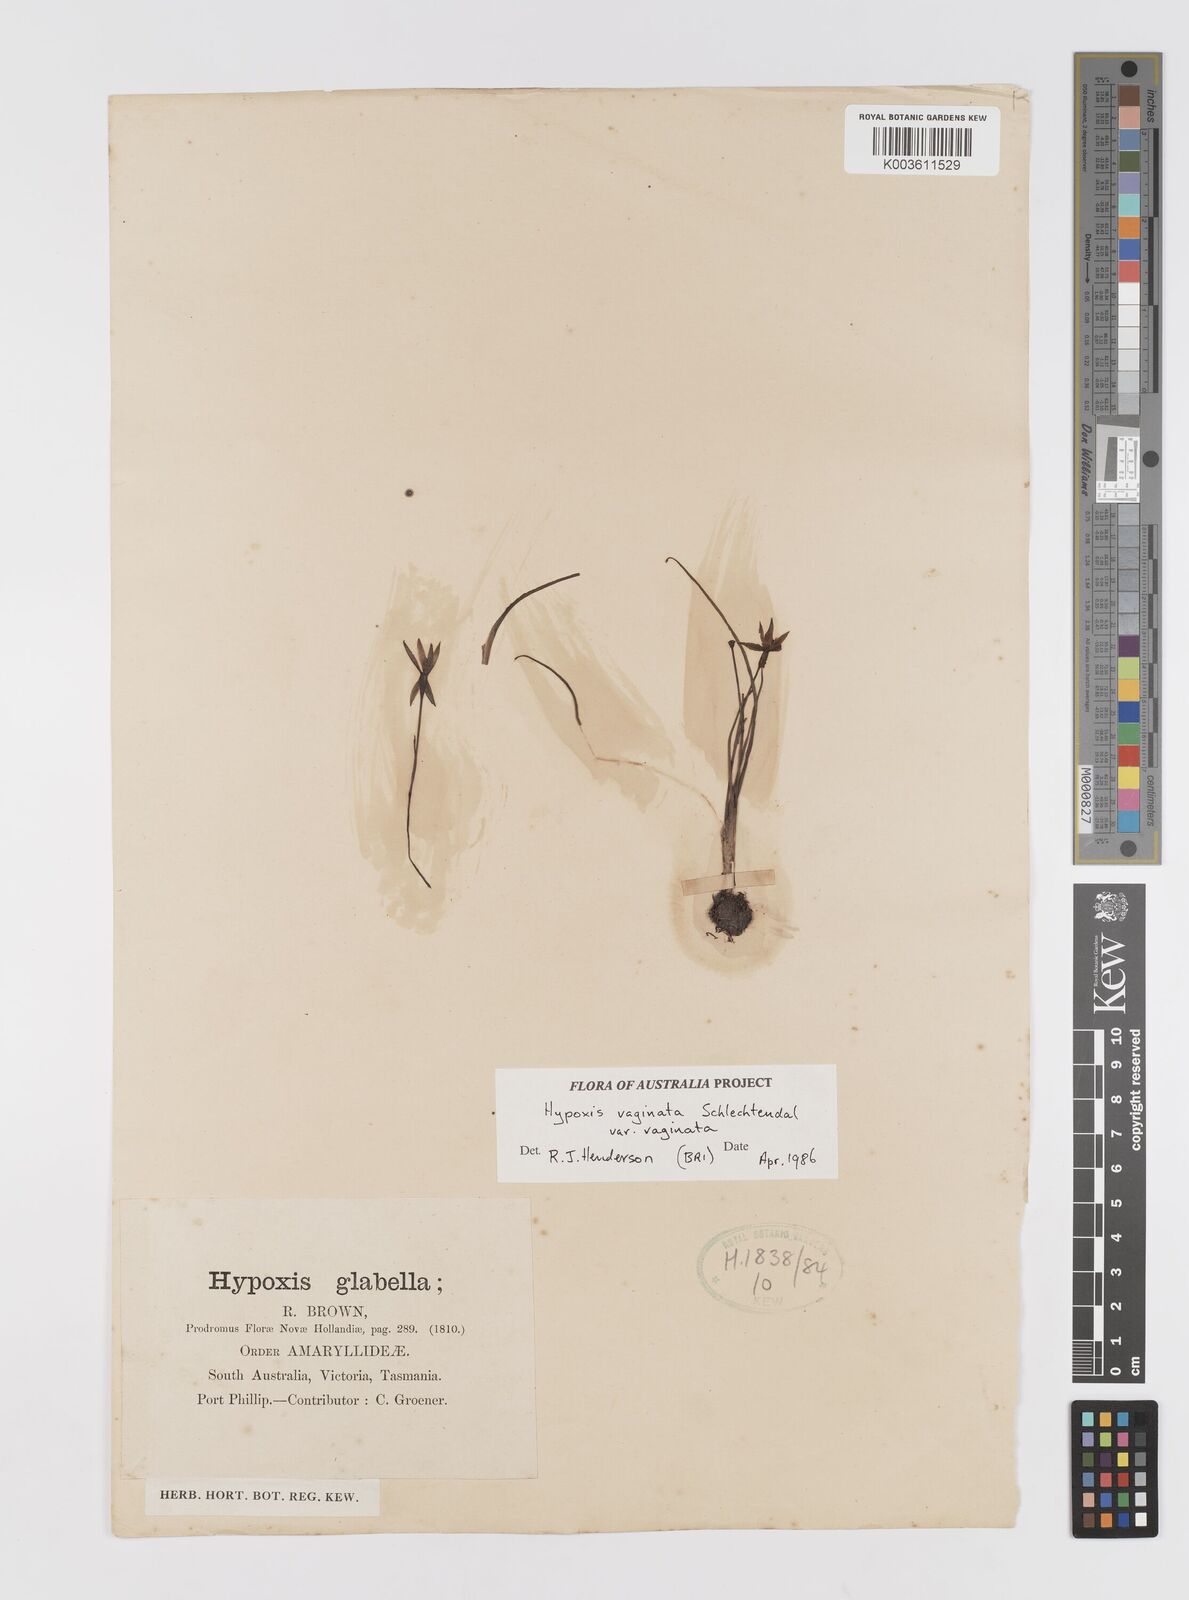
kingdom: Plantae
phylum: Tracheophyta
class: Liliopsida
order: Asparagales
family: Hypoxidaceae
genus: Pauridia
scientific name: Pauridia vaginata
